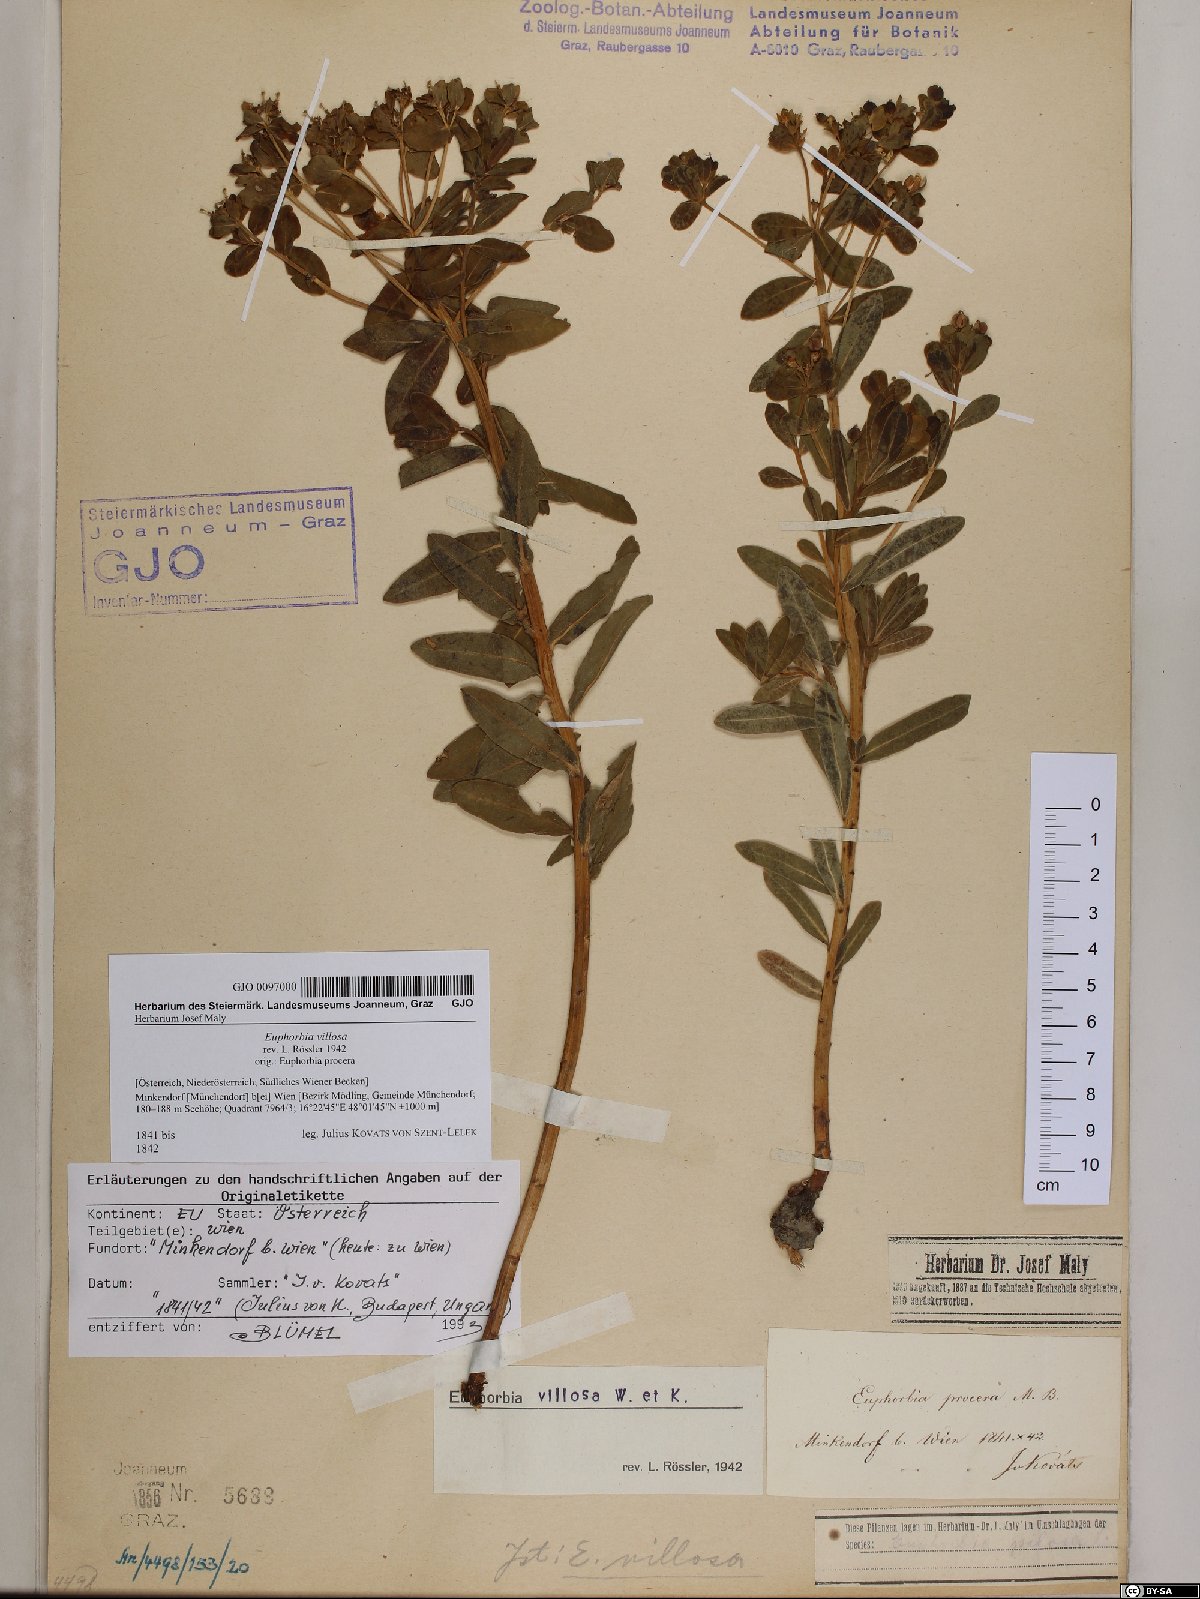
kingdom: Plantae
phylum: Tracheophyta
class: Magnoliopsida
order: Malpighiales
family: Euphorbiaceae
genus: Euphorbia
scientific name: Euphorbia illirica
